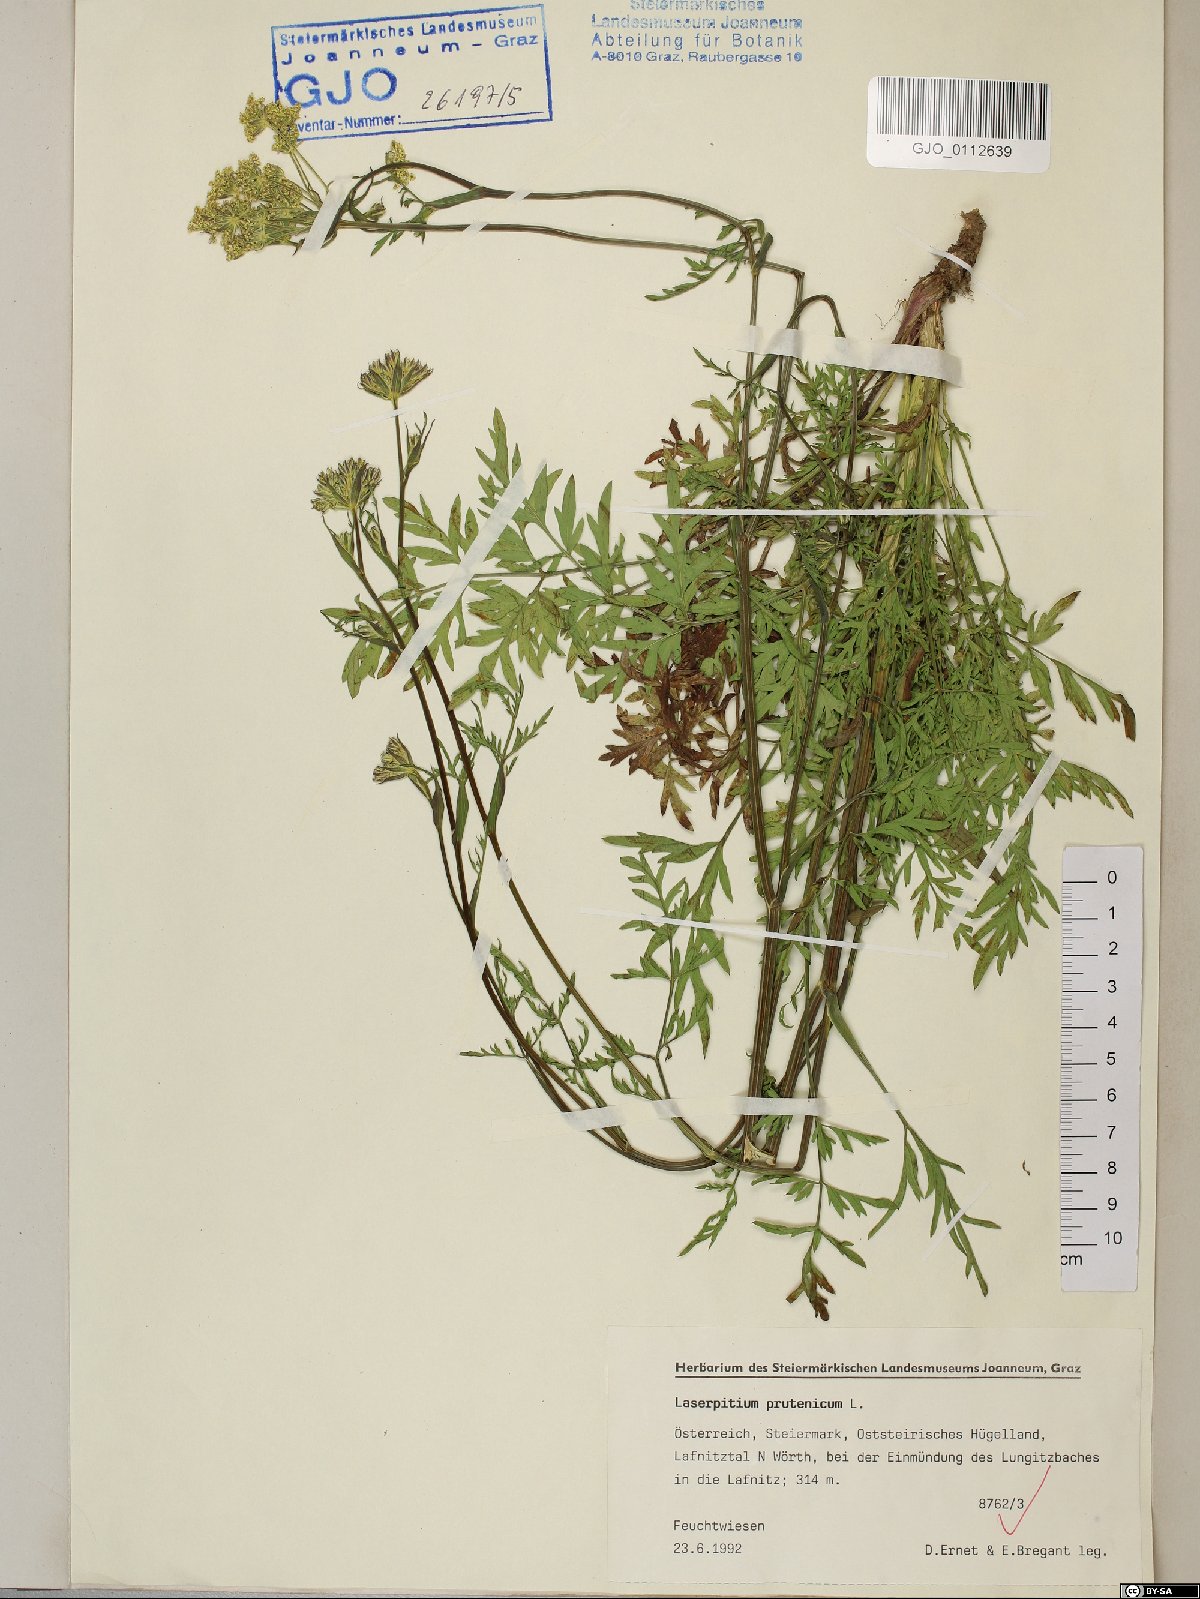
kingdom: Plantae
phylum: Tracheophyta
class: Magnoliopsida
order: Apiales
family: Apiaceae
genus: Silphiodaucus
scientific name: Silphiodaucus prutenicus
